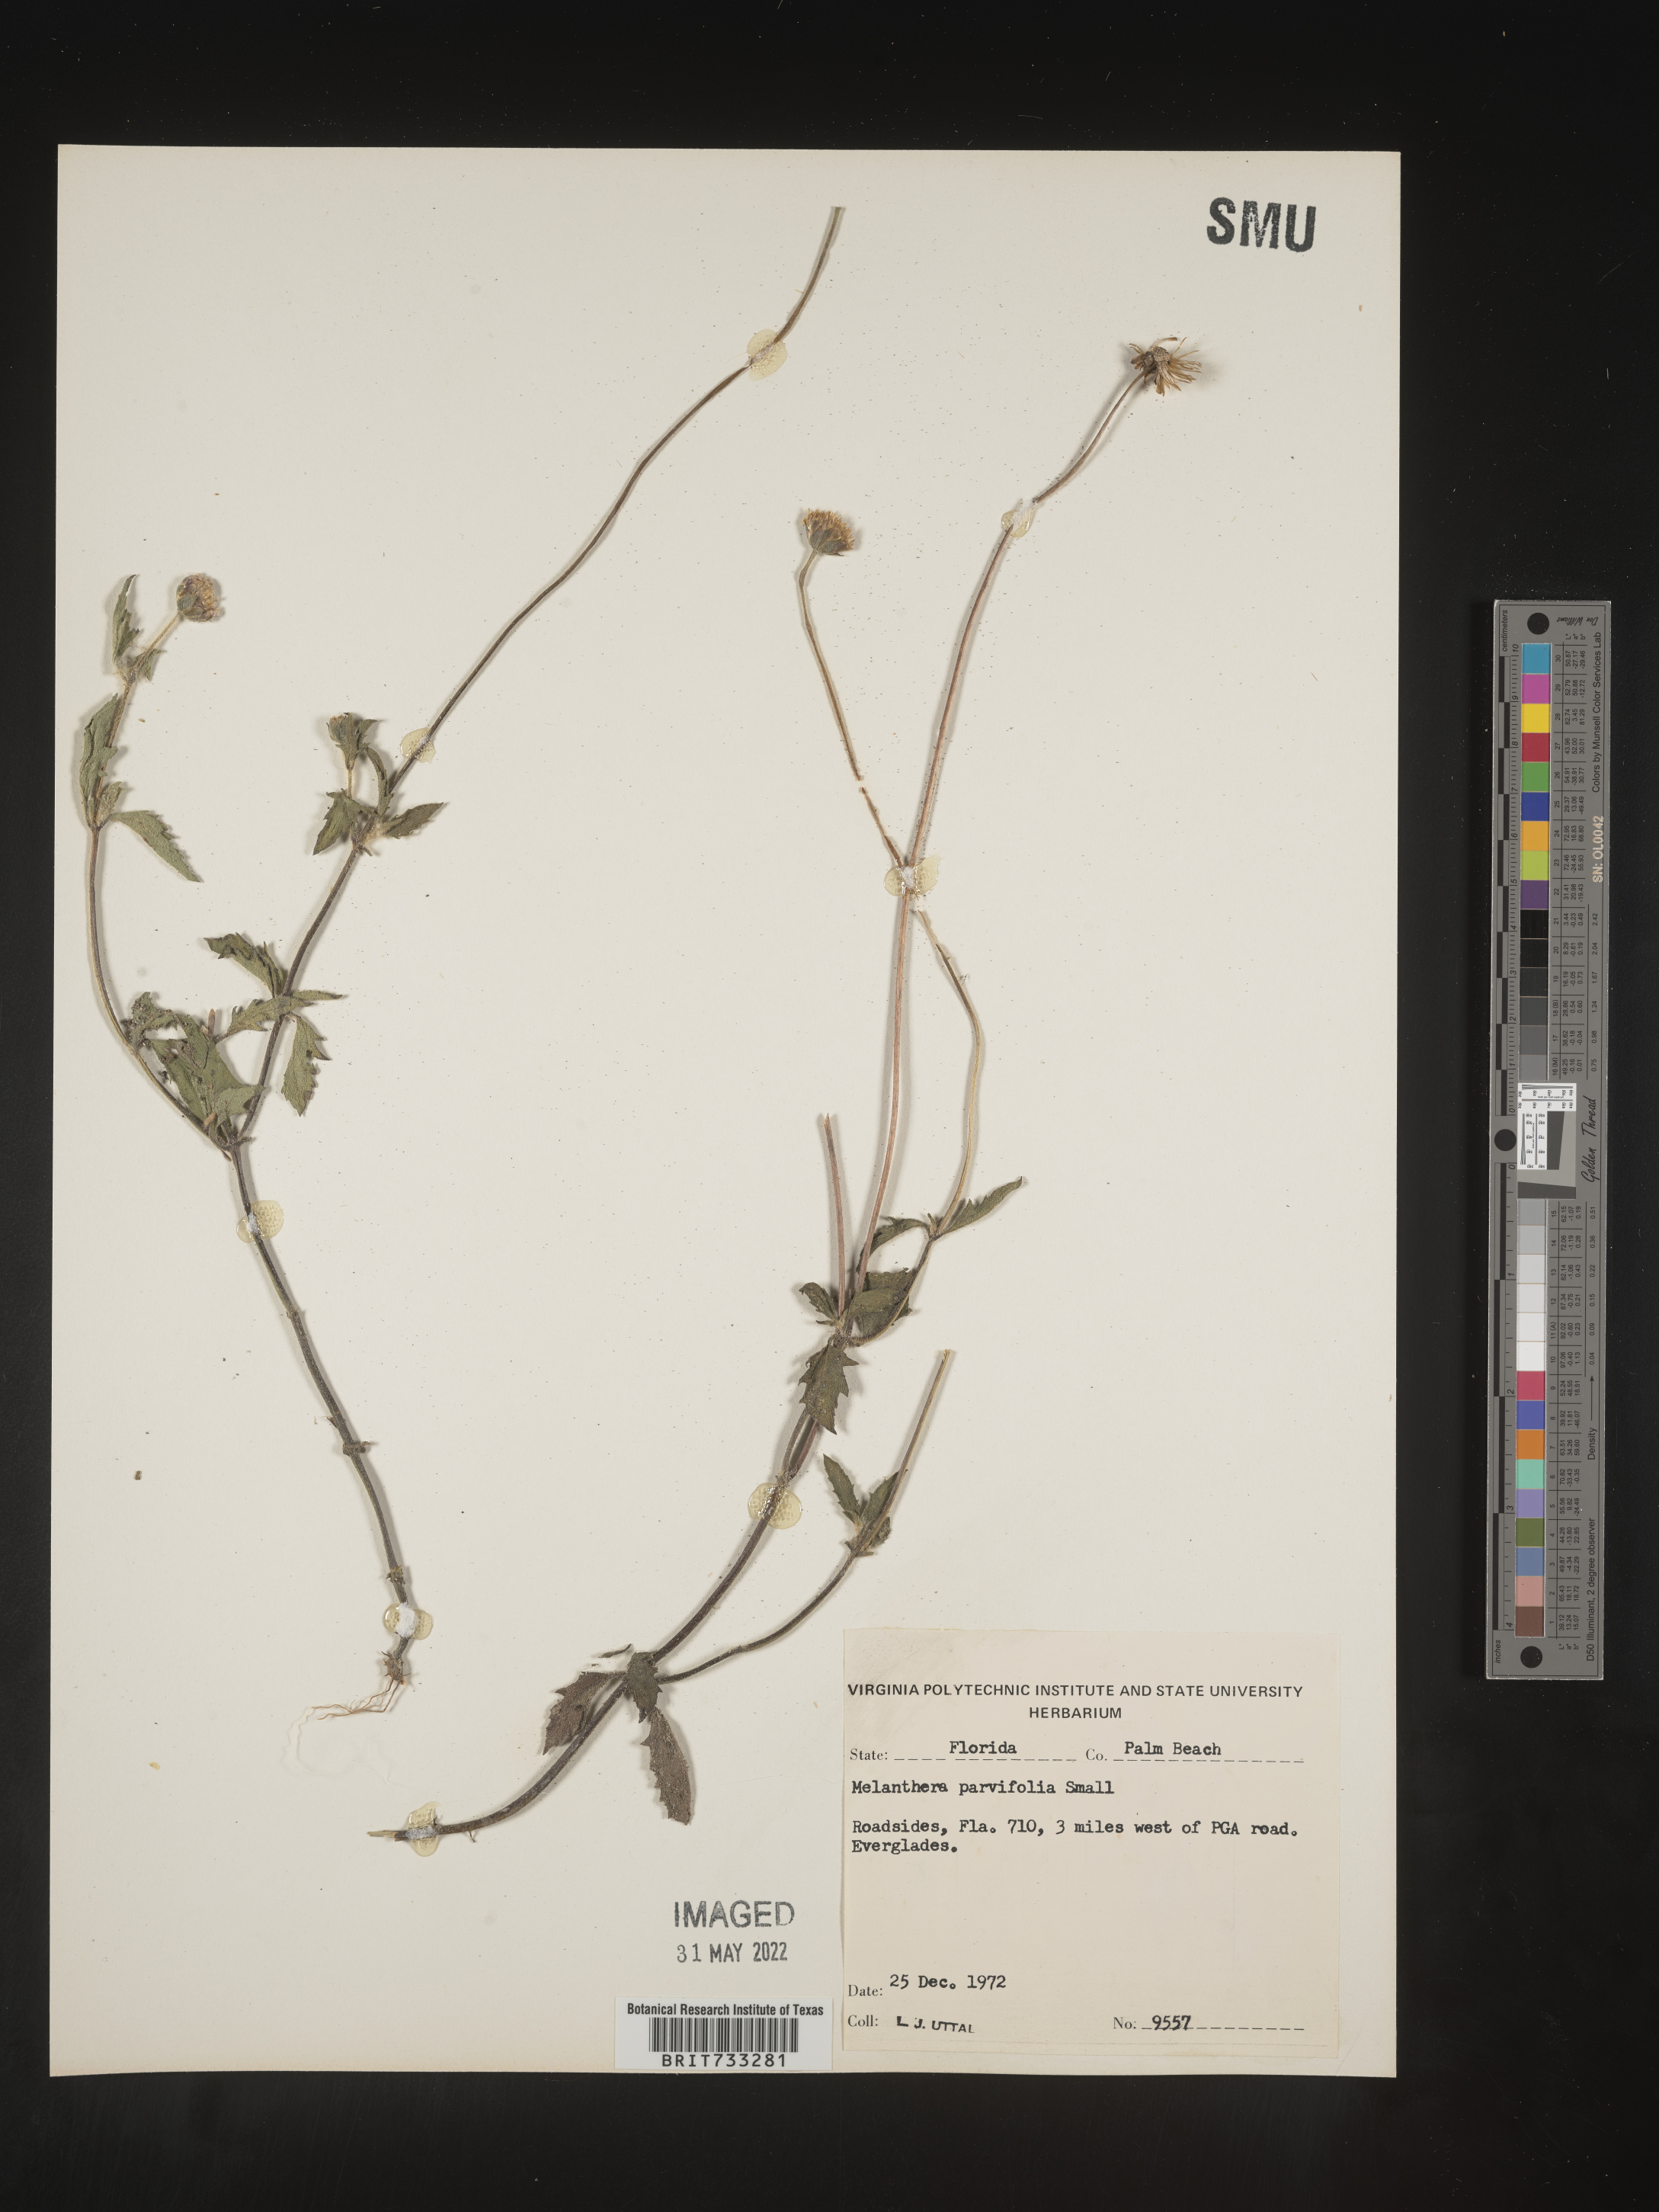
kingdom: Plantae
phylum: Tracheophyta
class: Magnoliopsida
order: Asterales
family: Asteraceae
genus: Melanthera
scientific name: Melanthera parvifolia
